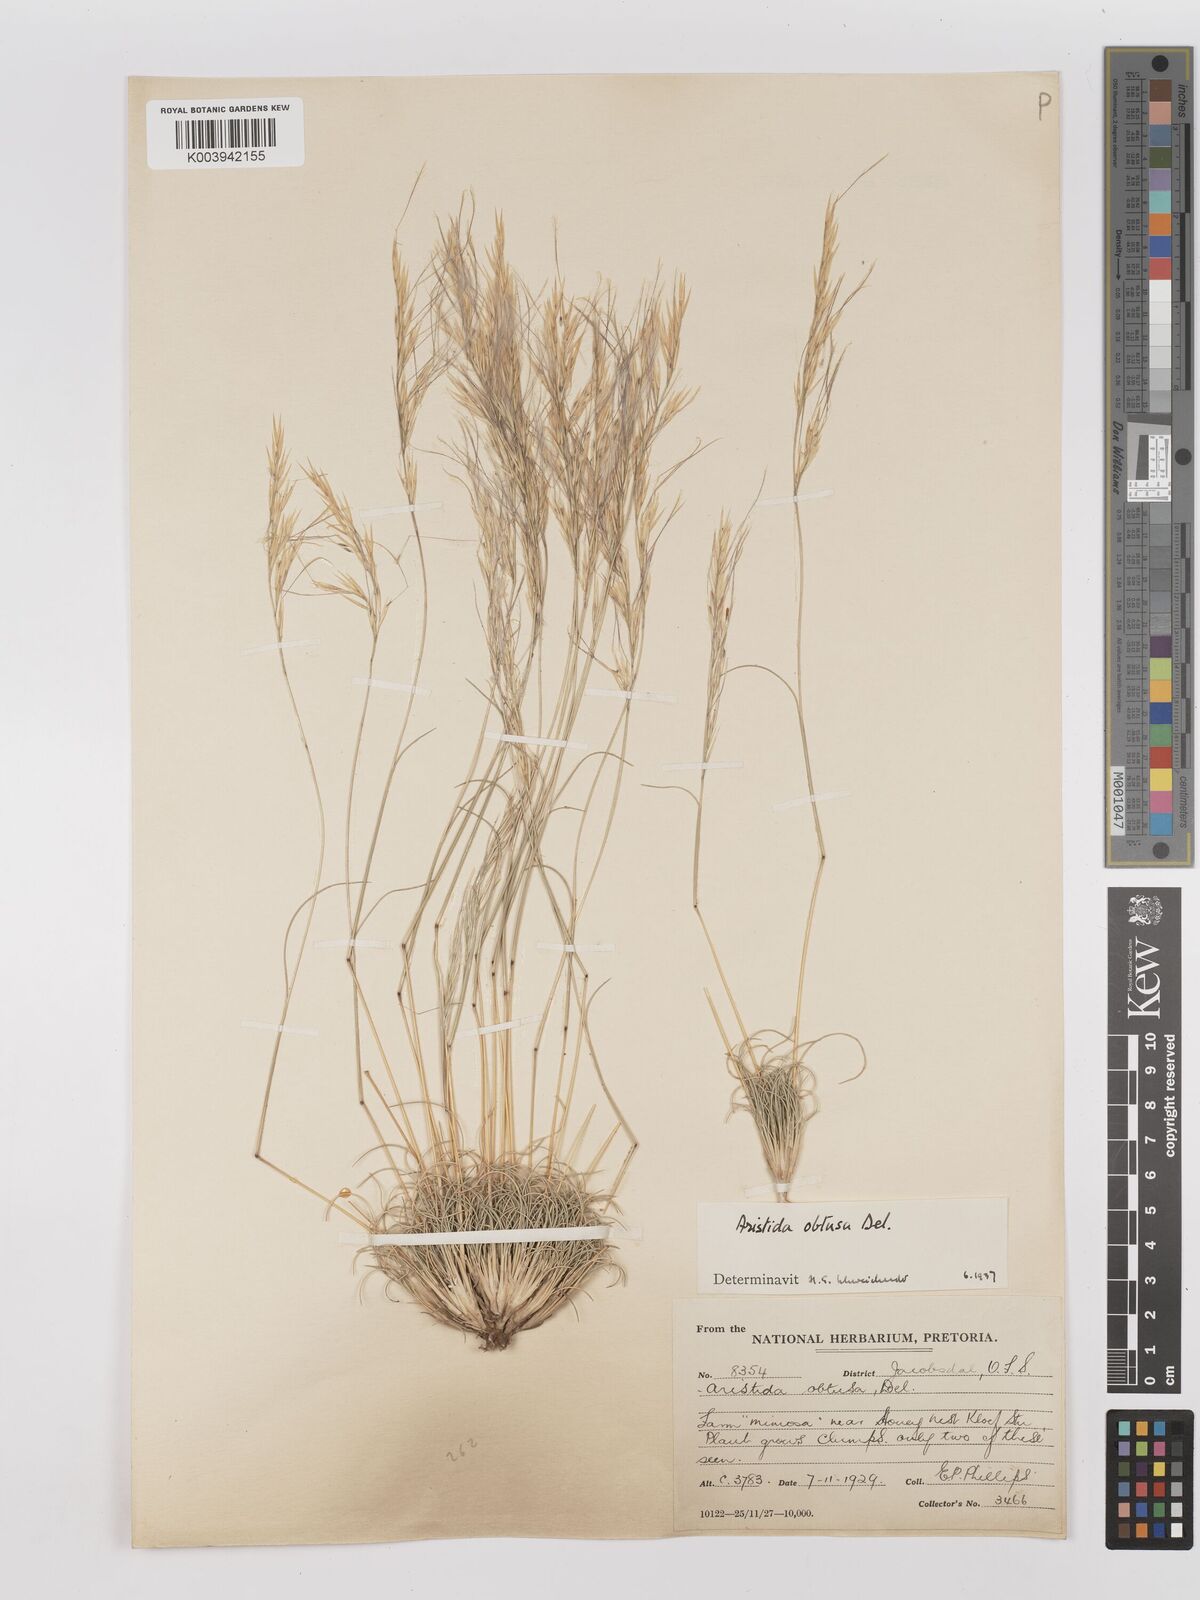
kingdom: Plantae
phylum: Tracheophyta
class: Liliopsida
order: Poales
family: Poaceae
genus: Stipagrostis
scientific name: Stipagrostis obtusa
